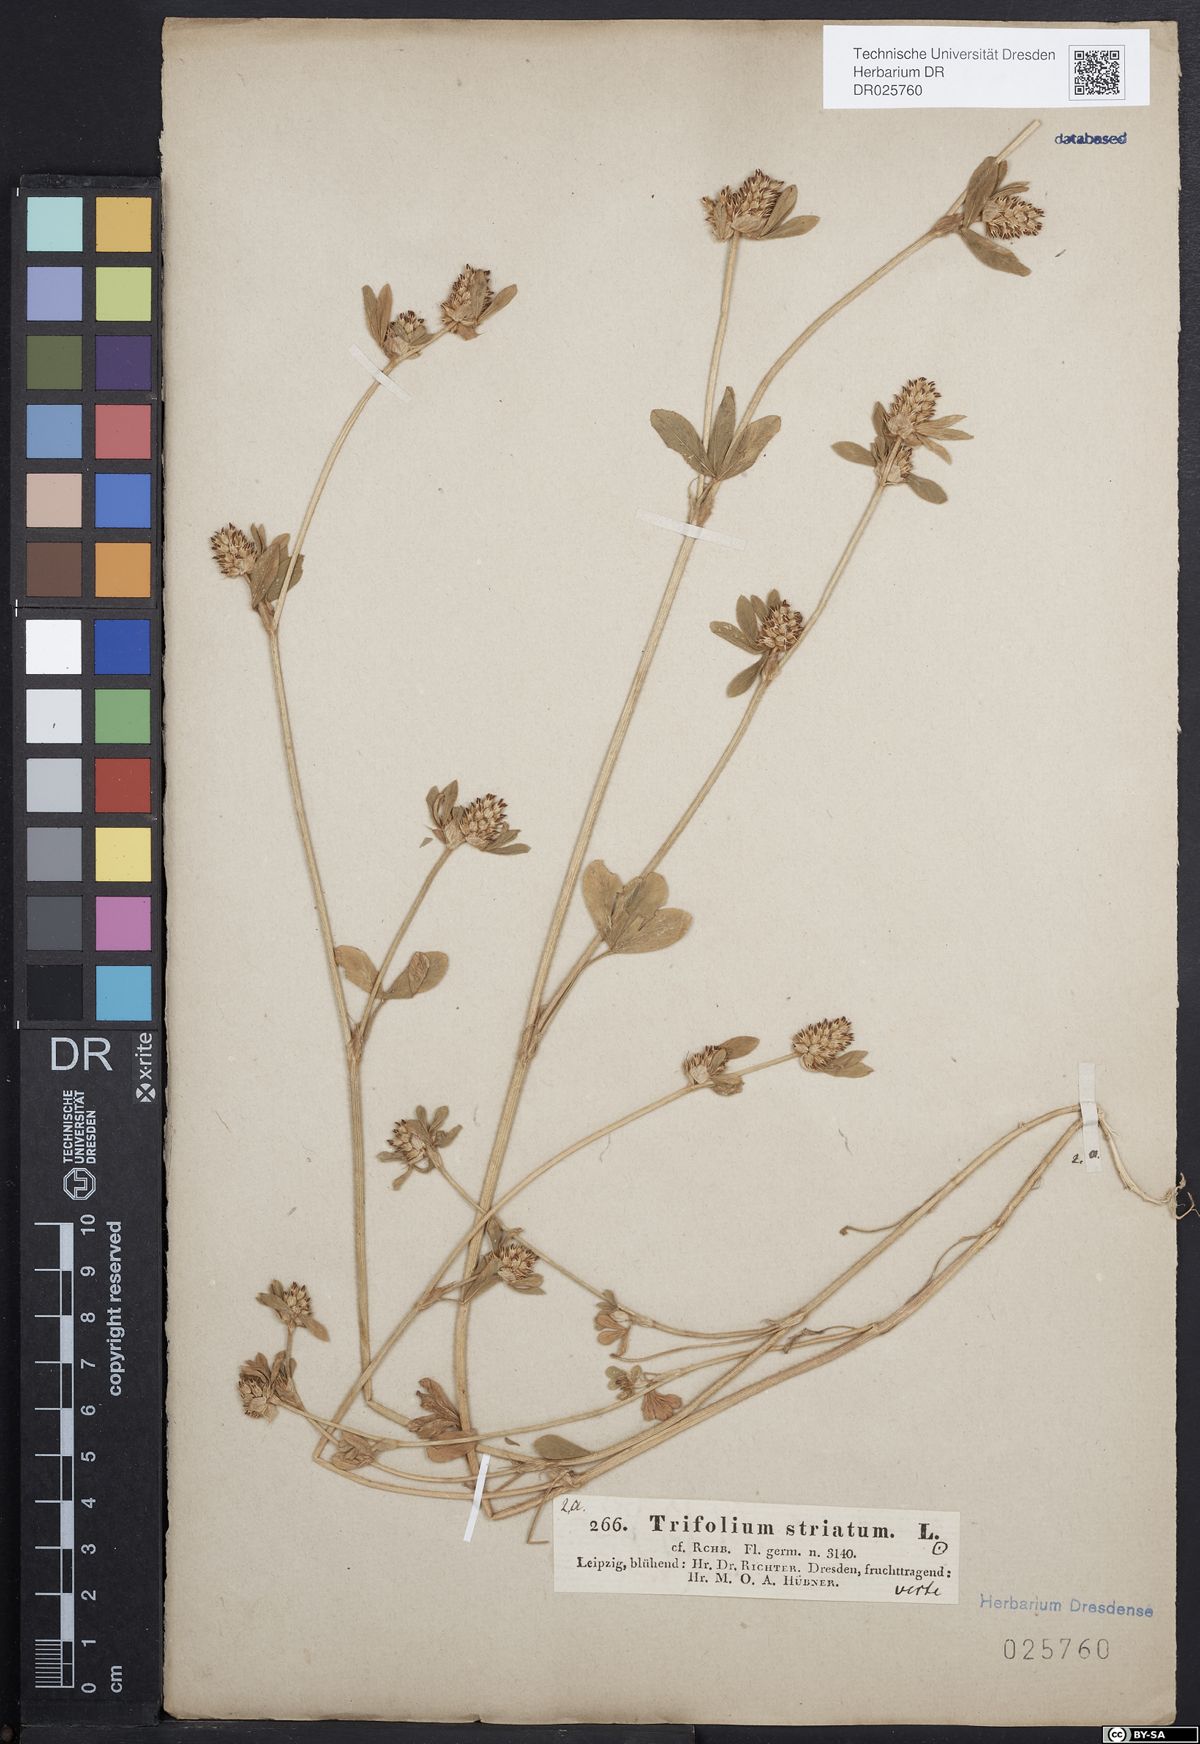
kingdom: Plantae
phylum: Tracheophyta
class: Magnoliopsida
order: Fabales
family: Fabaceae
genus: Trifolium
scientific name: Trifolium striatum
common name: Knotted clover
